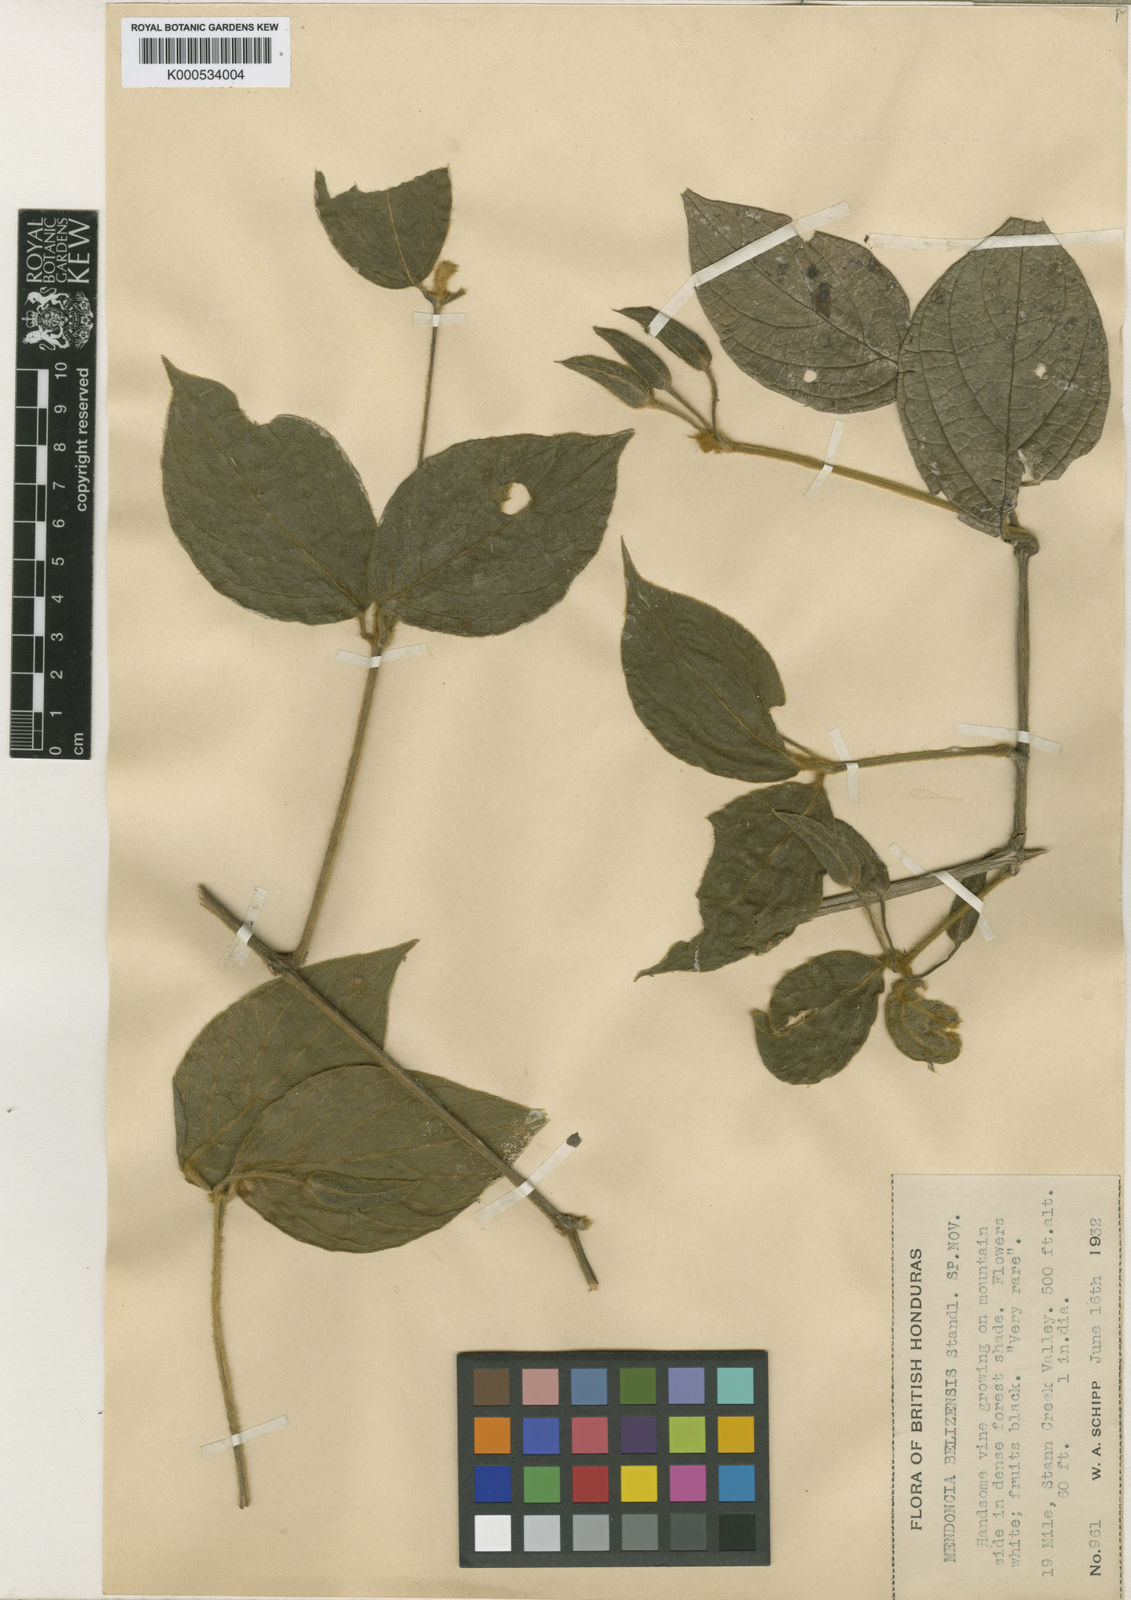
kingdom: Plantae
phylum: Tracheophyta
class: Magnoliopsida
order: Lamiales
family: Acanthaceae
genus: Mendoncia
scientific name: Mendoncia lindavii
